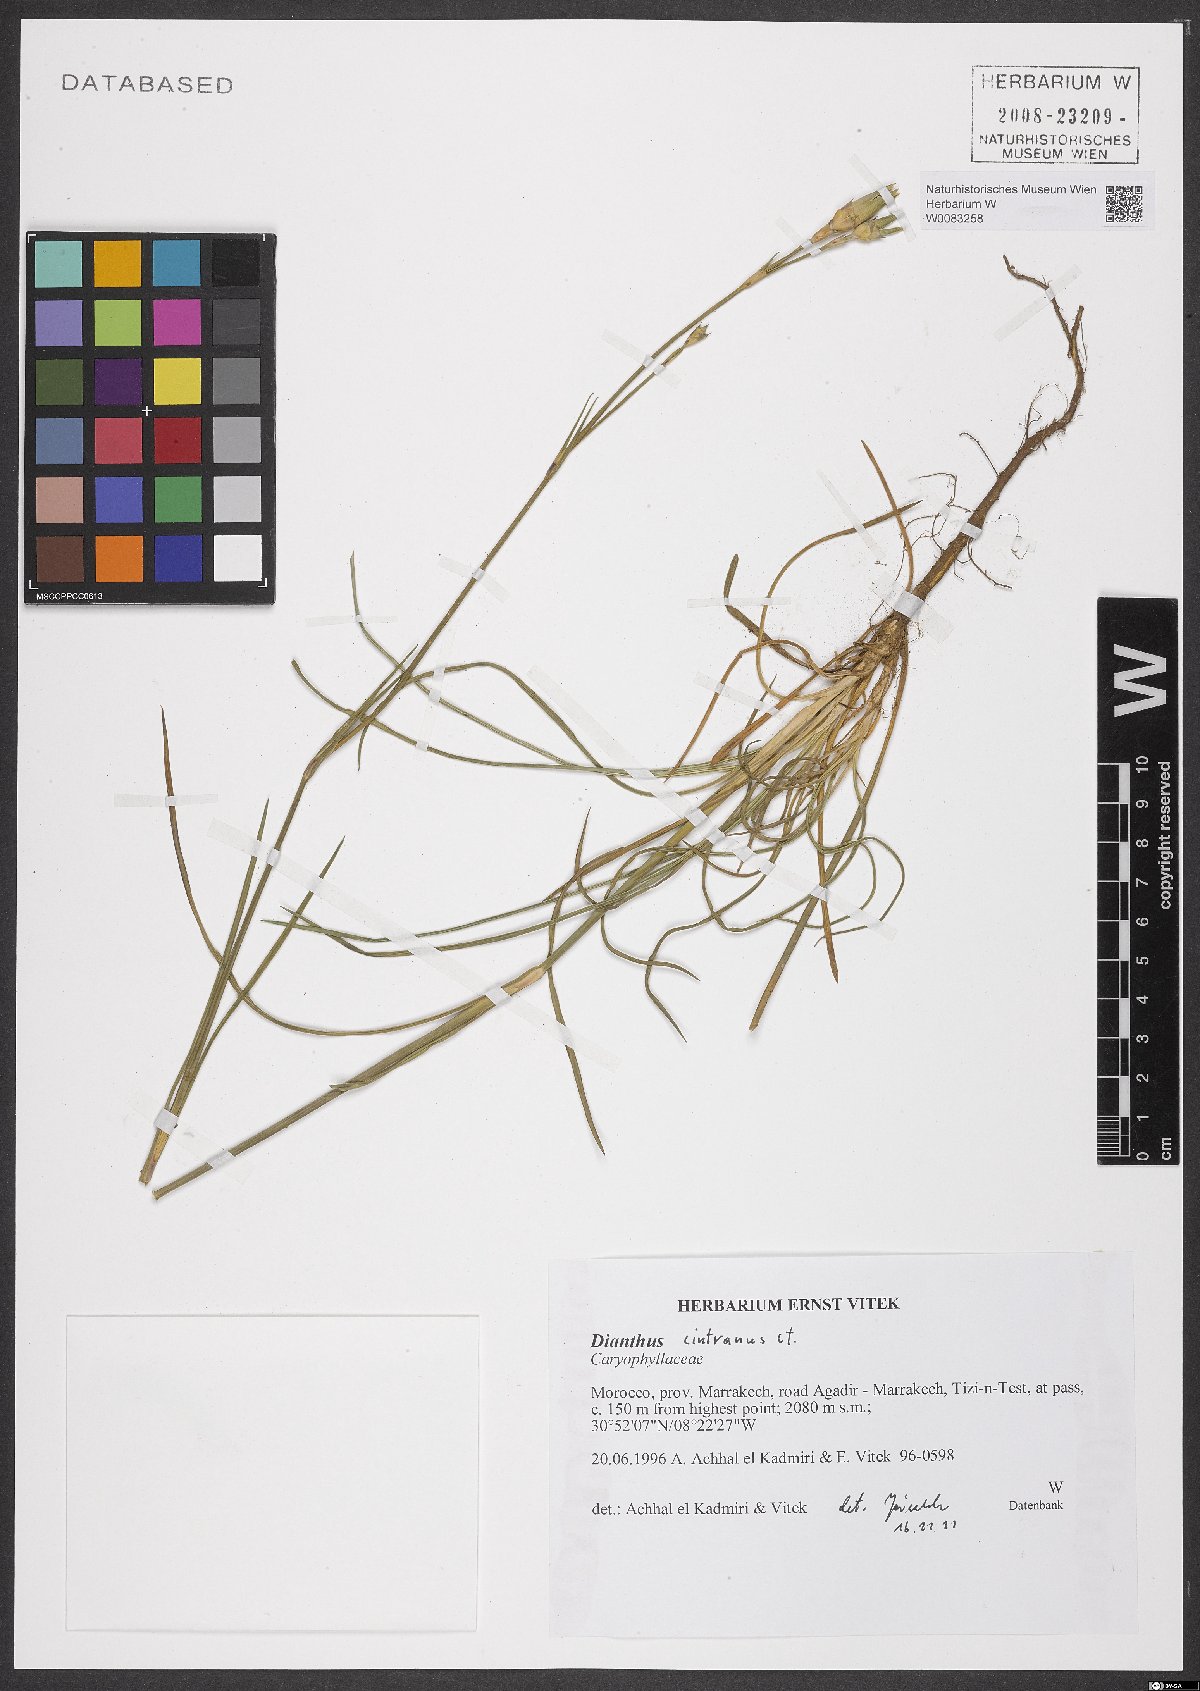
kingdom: Plantae
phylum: Tracheophyta
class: Magnoliopsida
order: Caryophyllales
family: Caryophyllaceae
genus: Dianthus
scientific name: Dianthus cintranus
